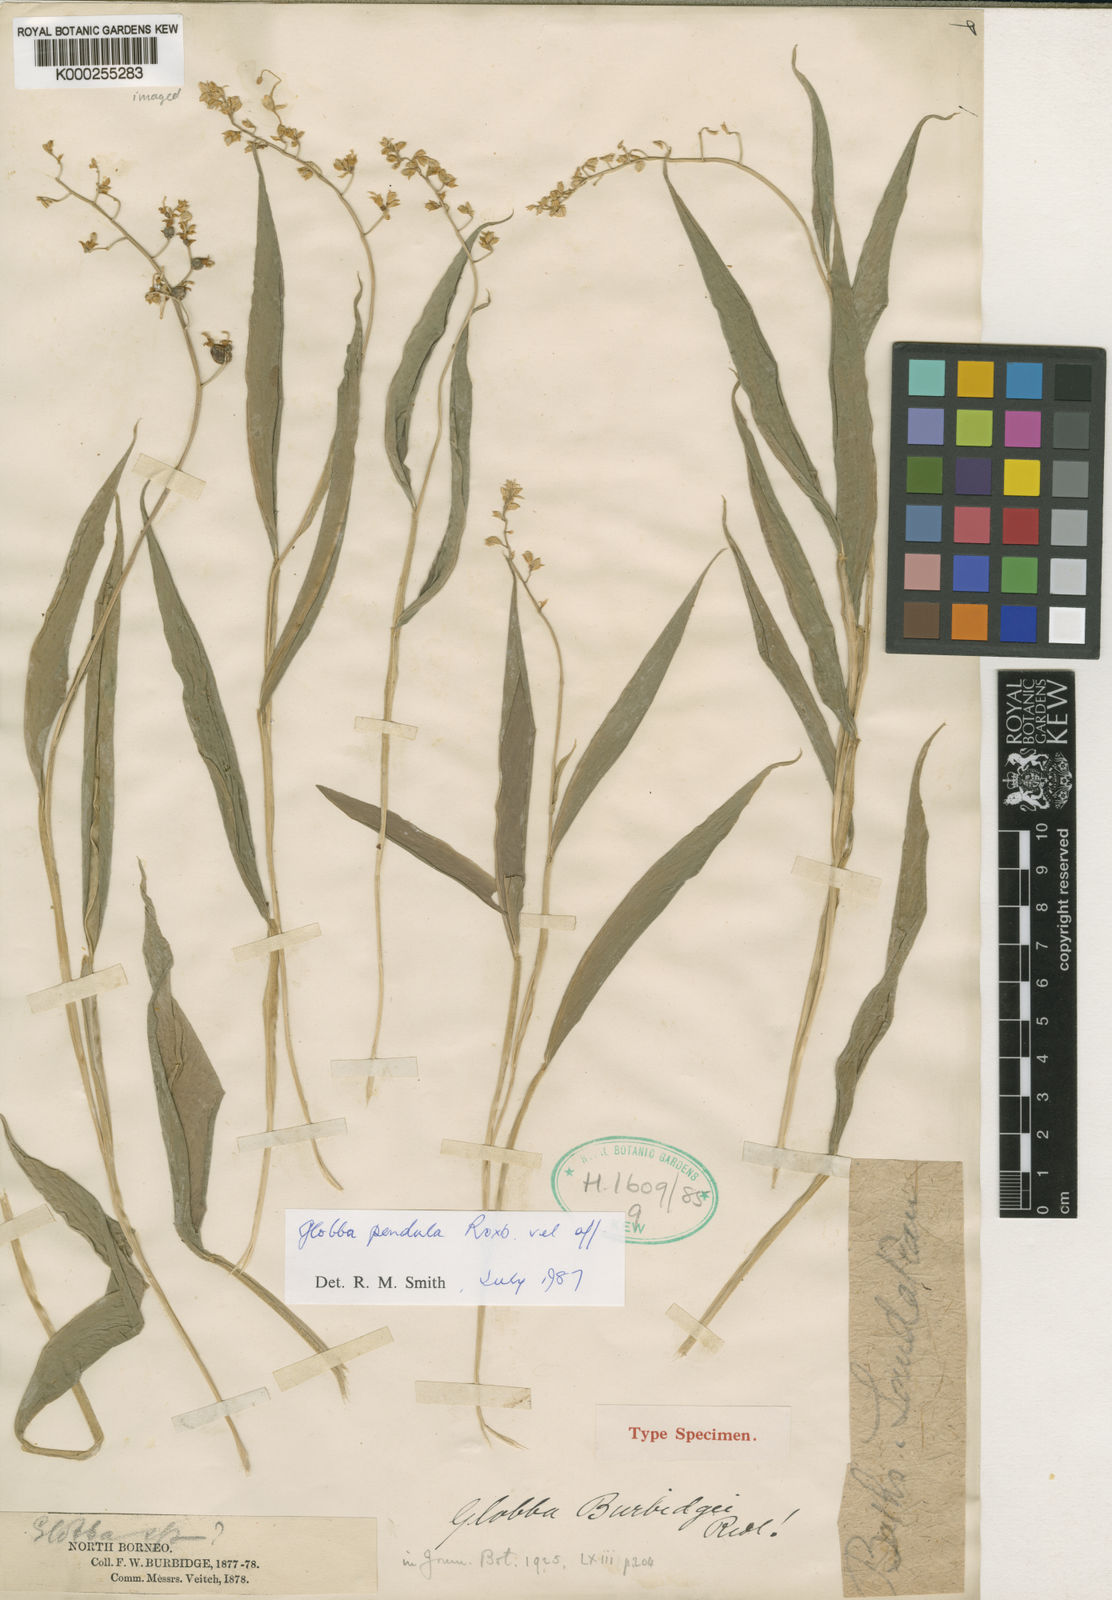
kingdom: Plantae
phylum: Tracheophyta
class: Liliopsida
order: Zingiberales
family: Zingiberaceae
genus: Globba
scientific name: Globba pendula
